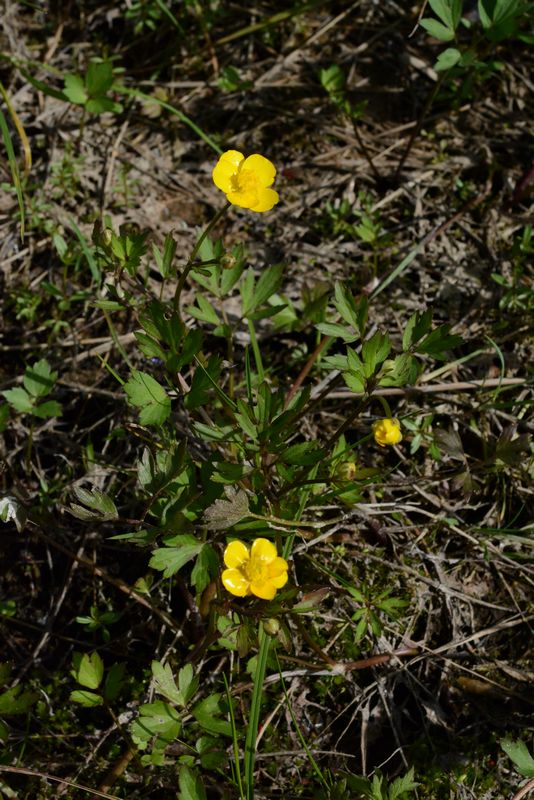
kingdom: Plantae
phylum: Tracheophyta
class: Magnoliopsida
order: Ranunculales
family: Ranunculaceae
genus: Ranunculus
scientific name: Ranunculus repens
